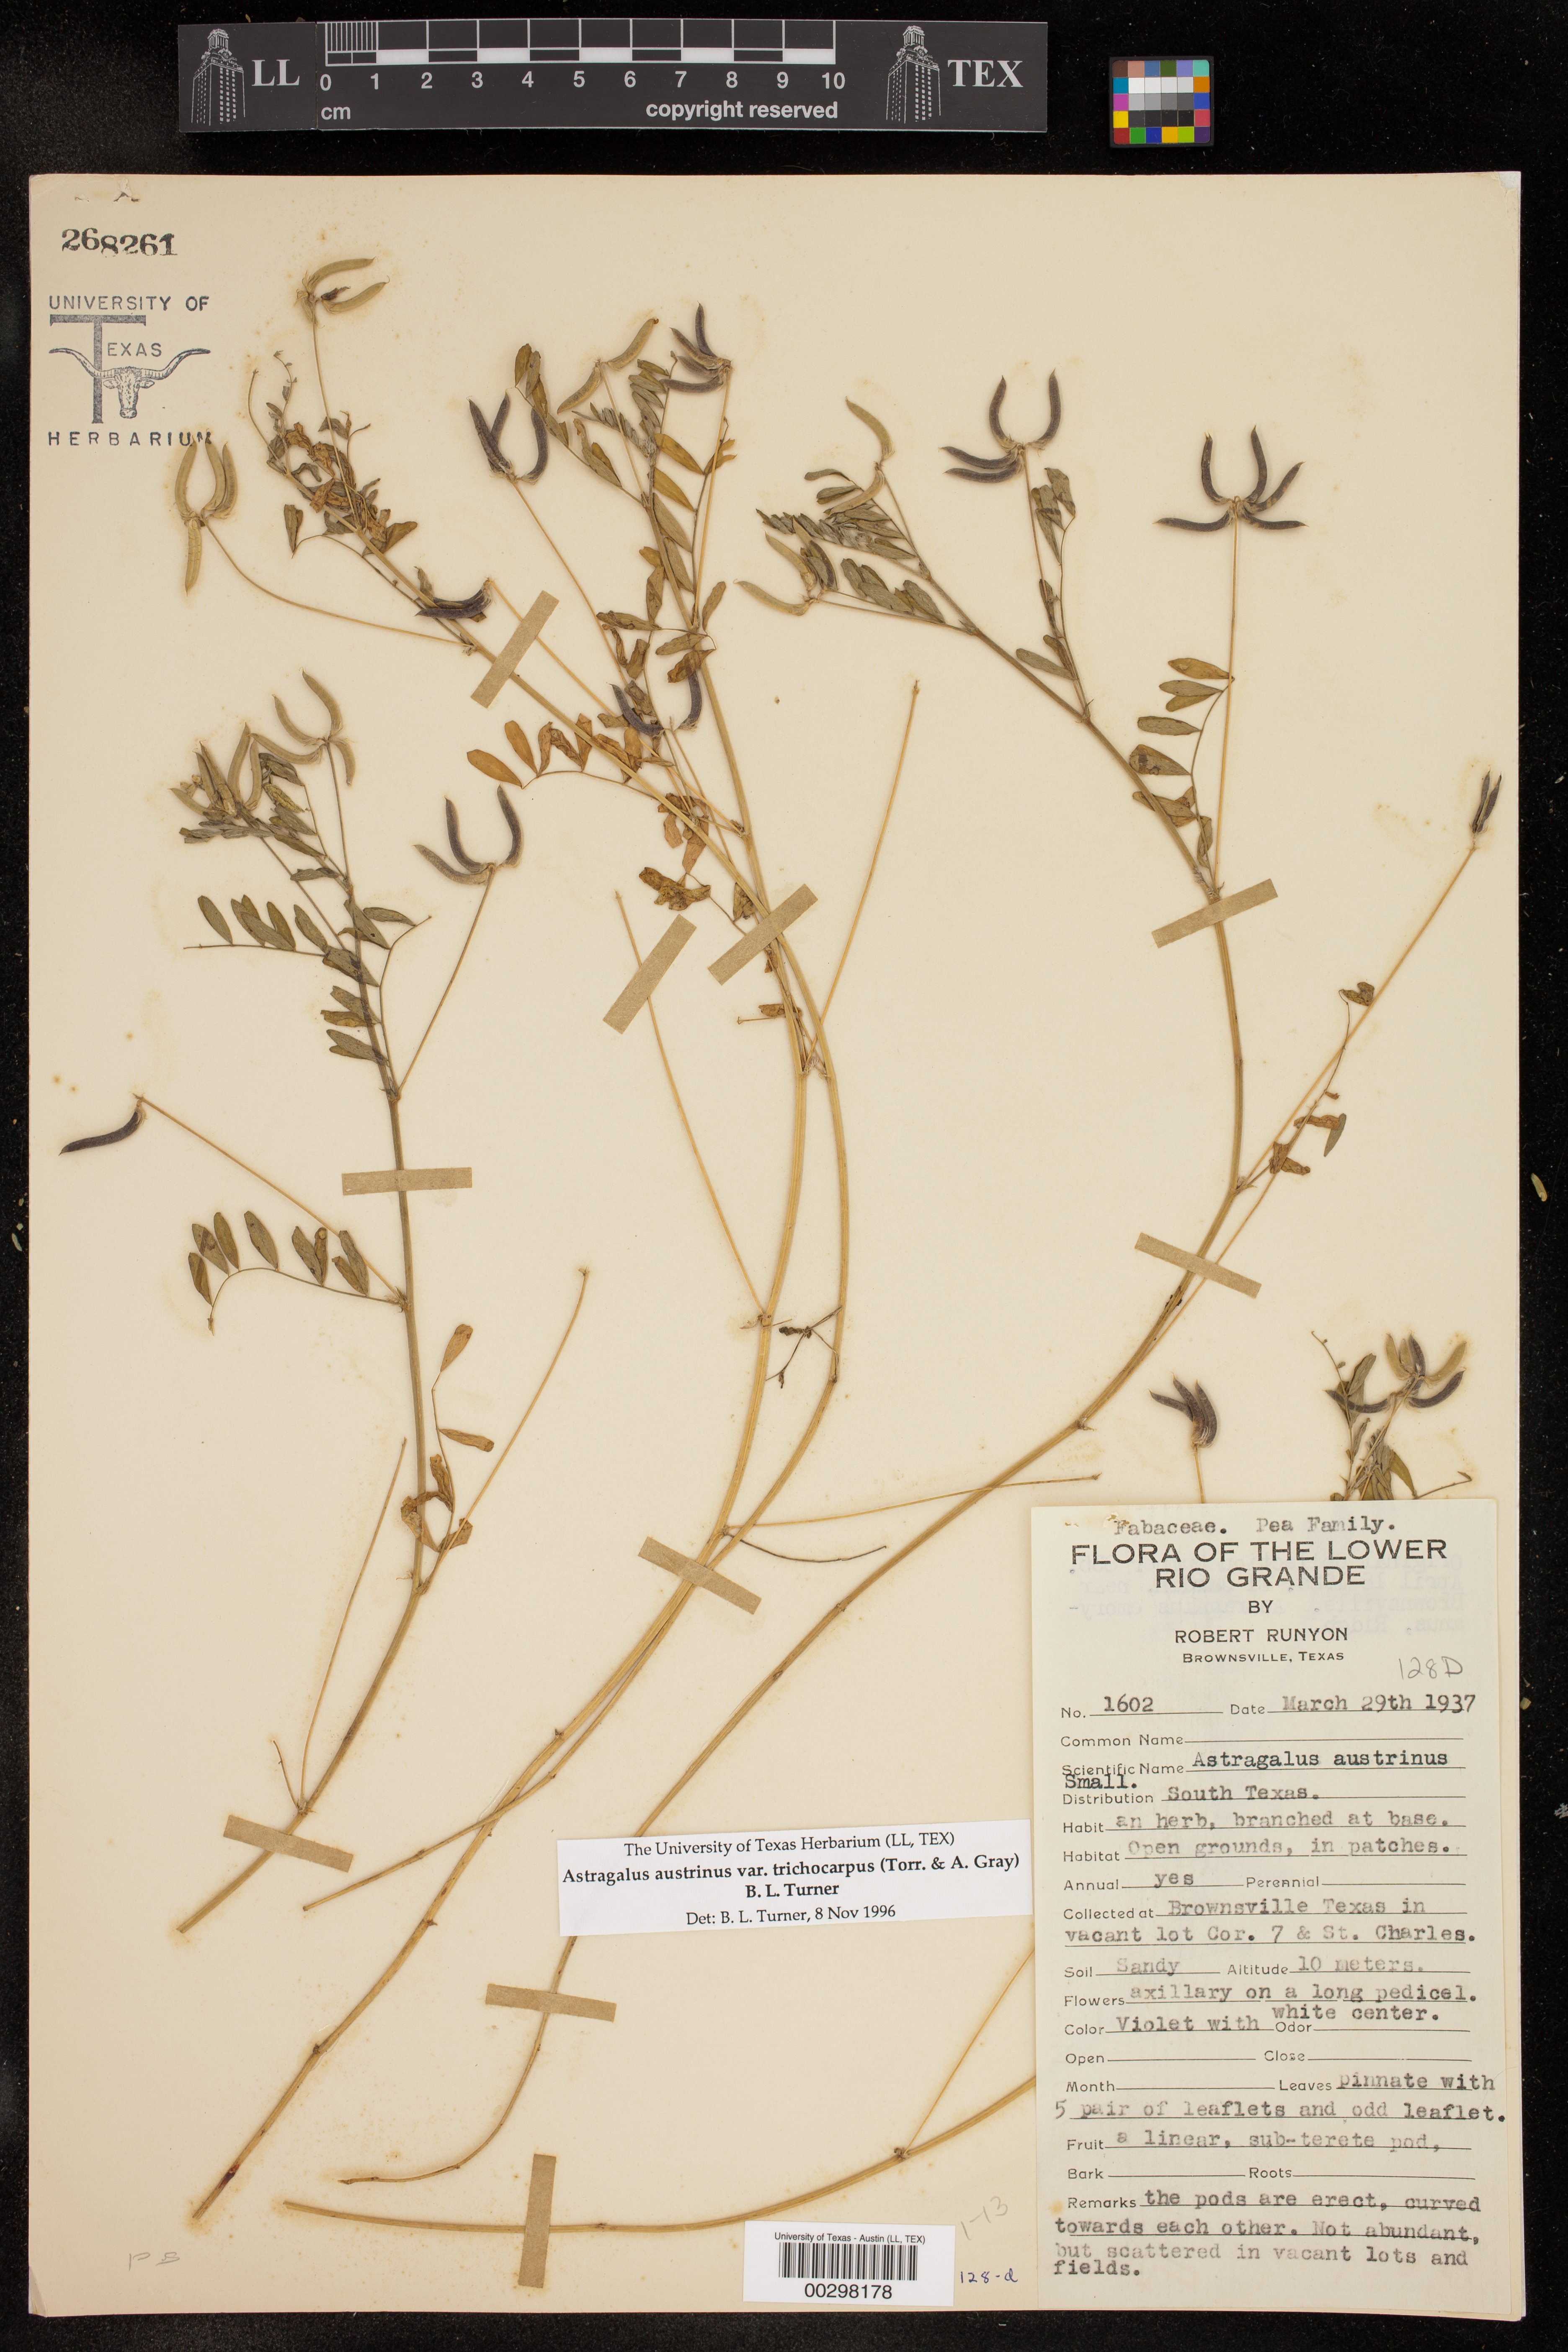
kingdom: Plantae
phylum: Tracheophyta
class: Magnoliopsida
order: Fabales
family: Fabaceae
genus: Astragalus
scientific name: Astragalus nuttallianus
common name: Smallflowered milkvetch
